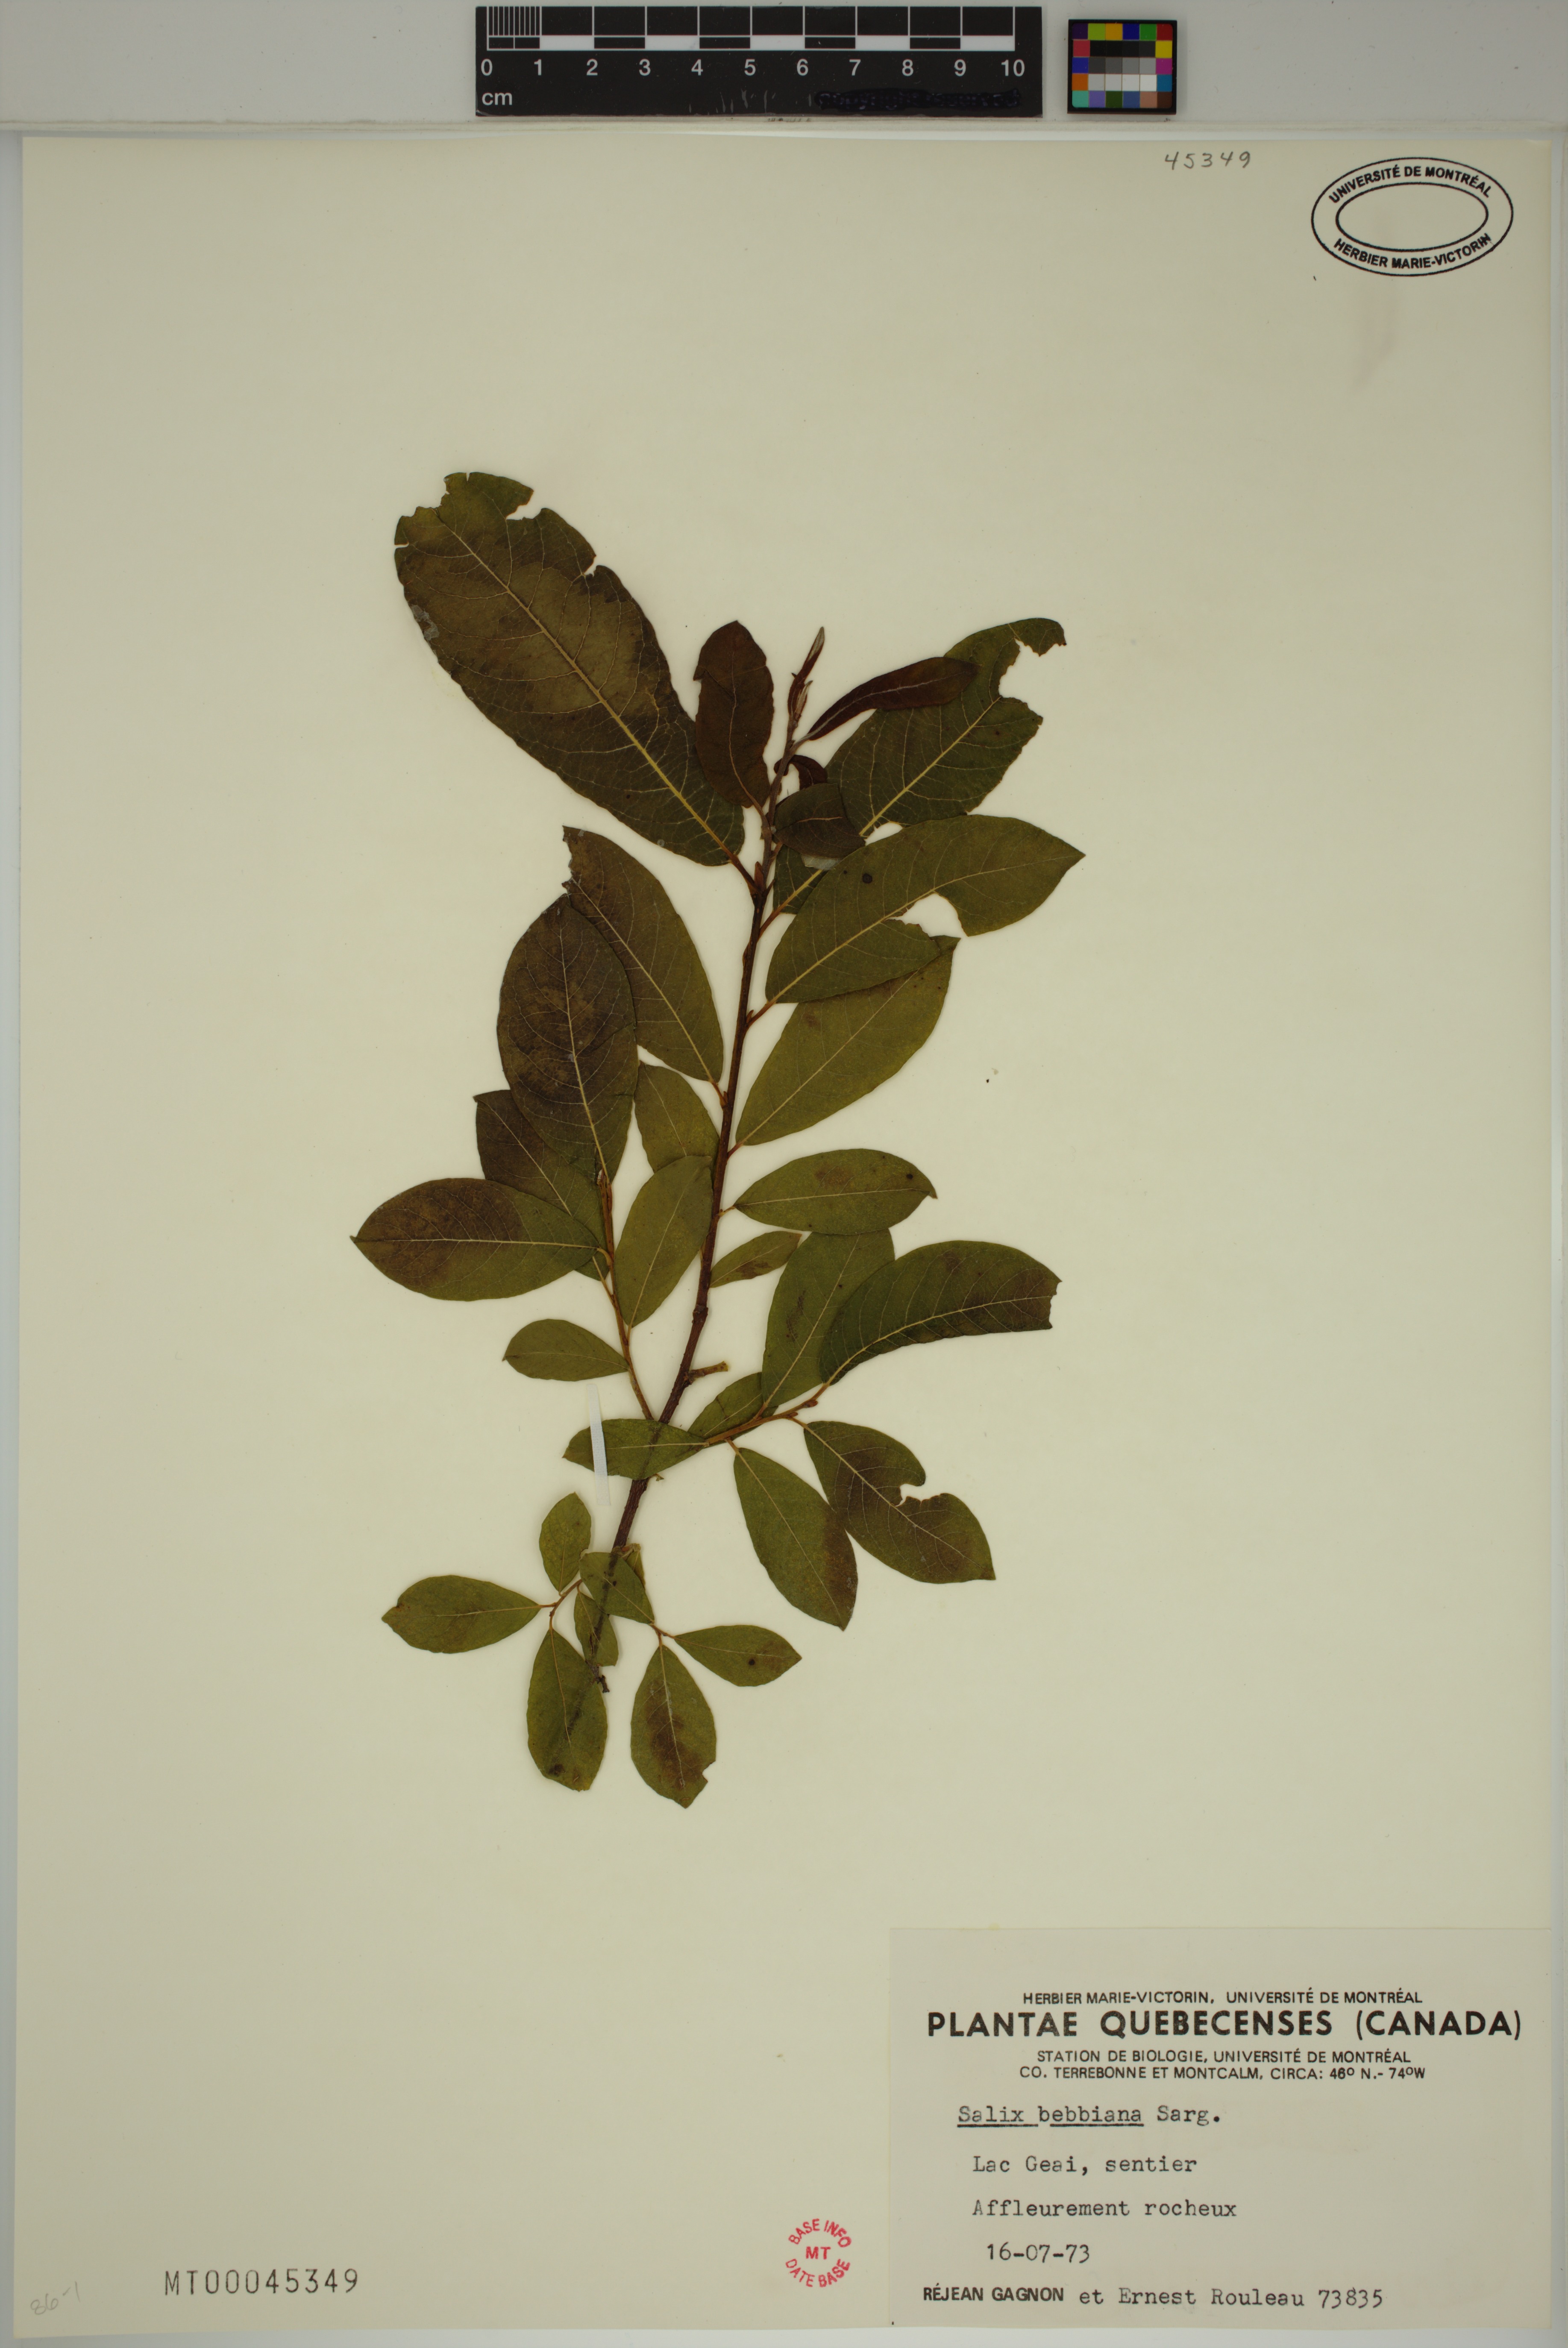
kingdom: Plantae
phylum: Tracheophyta
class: Magnoliopsida
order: Malpighiales
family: Salicaceae
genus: Salix
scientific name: Salix bebbiana
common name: Bebb's willow
